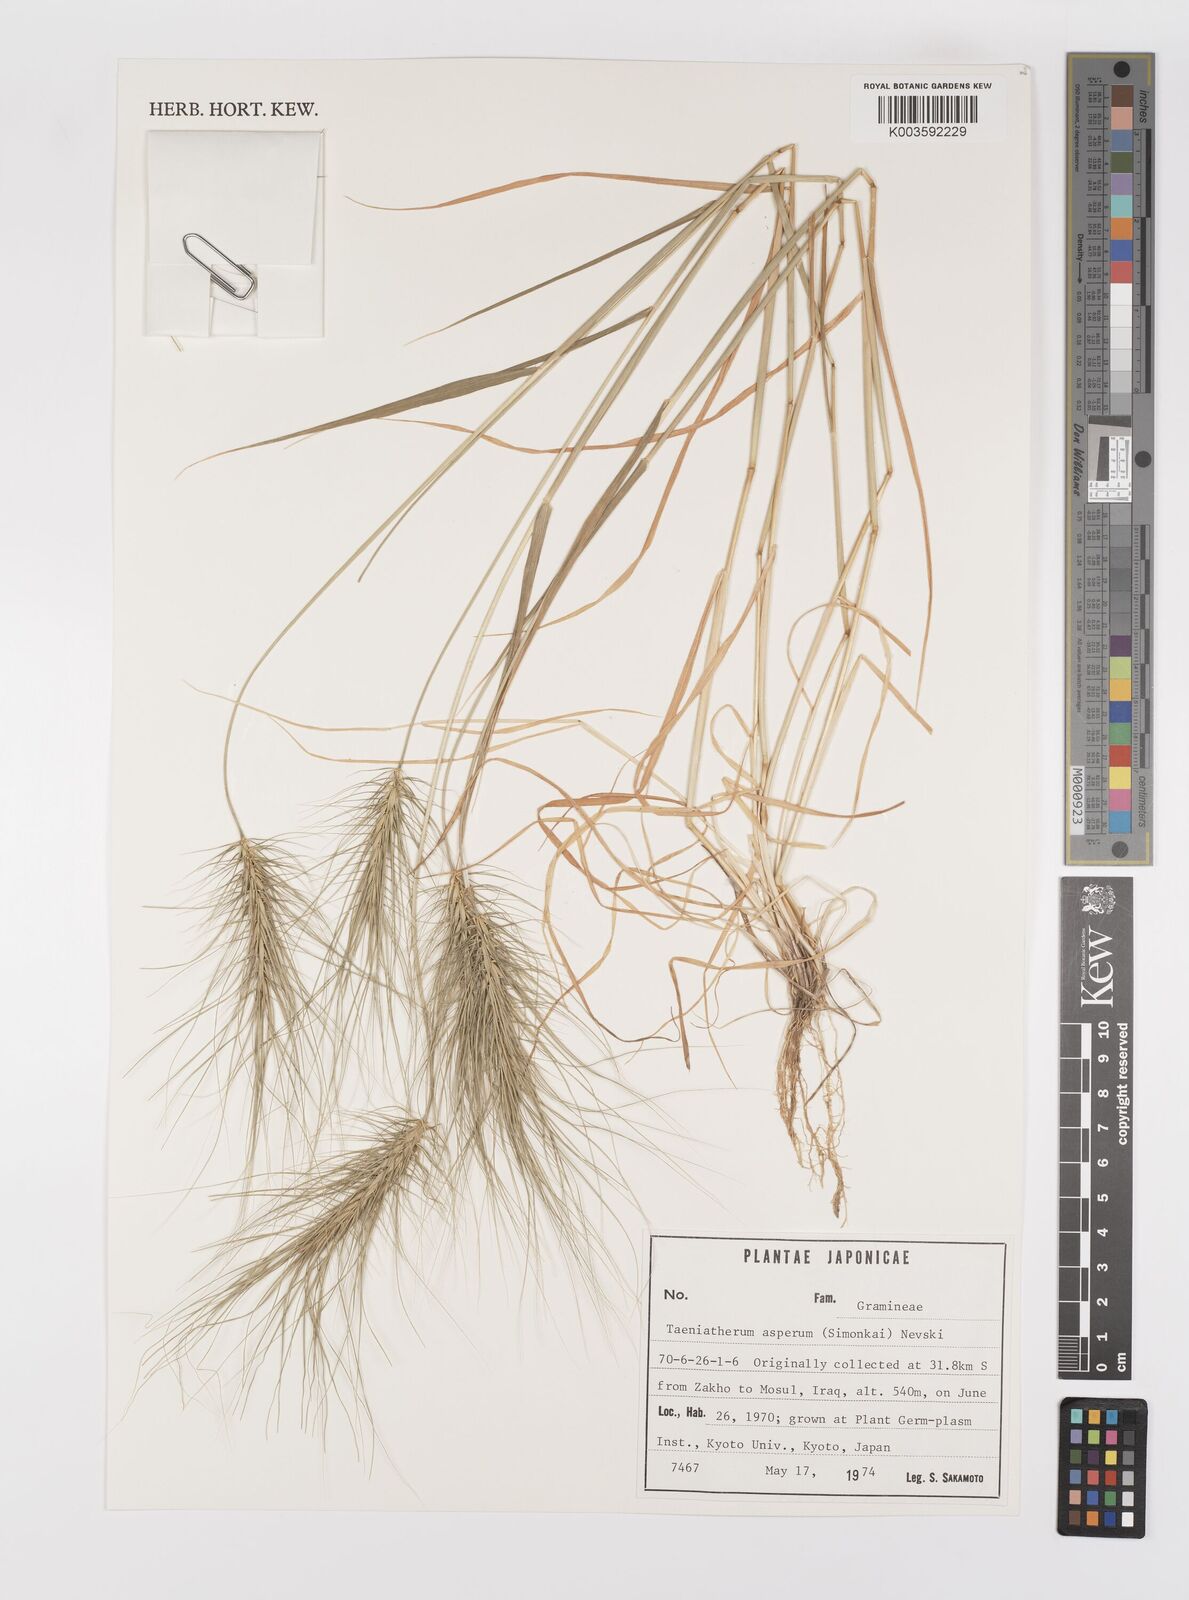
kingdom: Plantae
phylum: Tracheophyta
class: Liliopsida
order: Poales
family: Poaceae
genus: Taeniatherum
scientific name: Taeniatherum caput-medusae
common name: Medusahead
